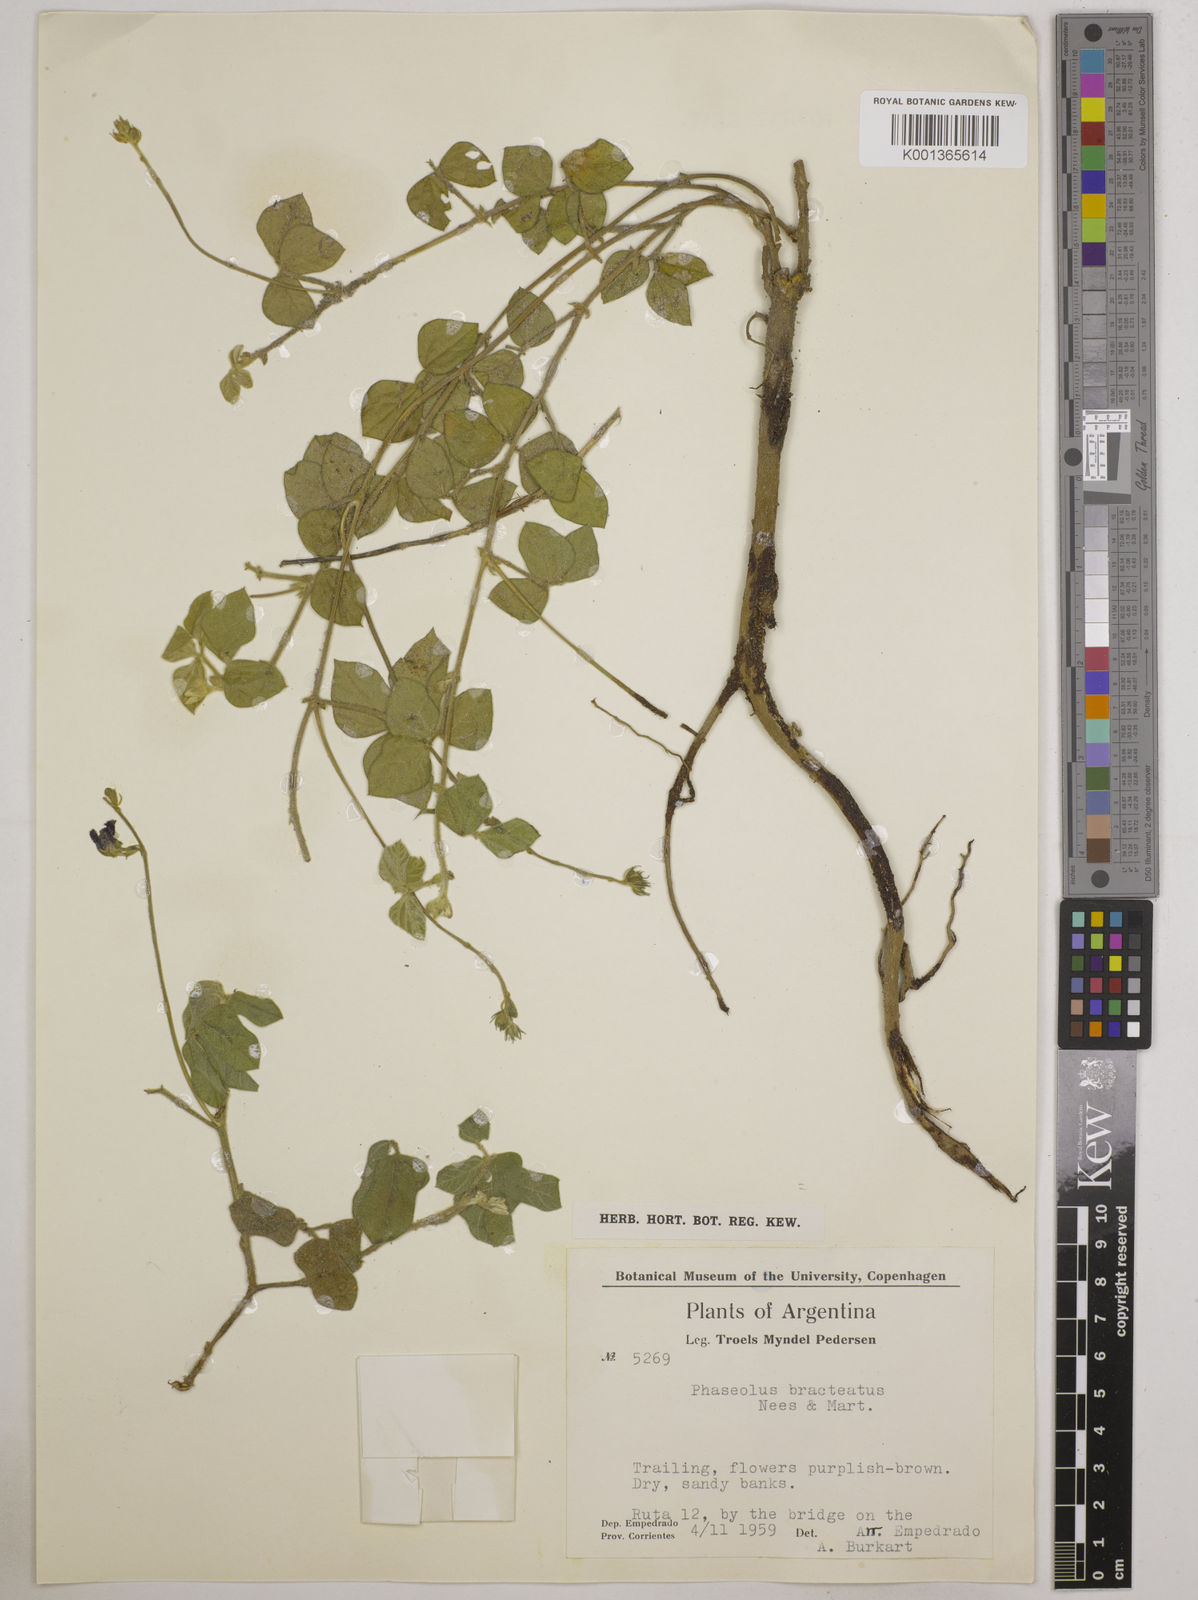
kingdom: Plantae
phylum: Tracheophyta
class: Magnoliopsida
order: Fabales
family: Fabaceae
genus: Macroptilium
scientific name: Macroptilium
